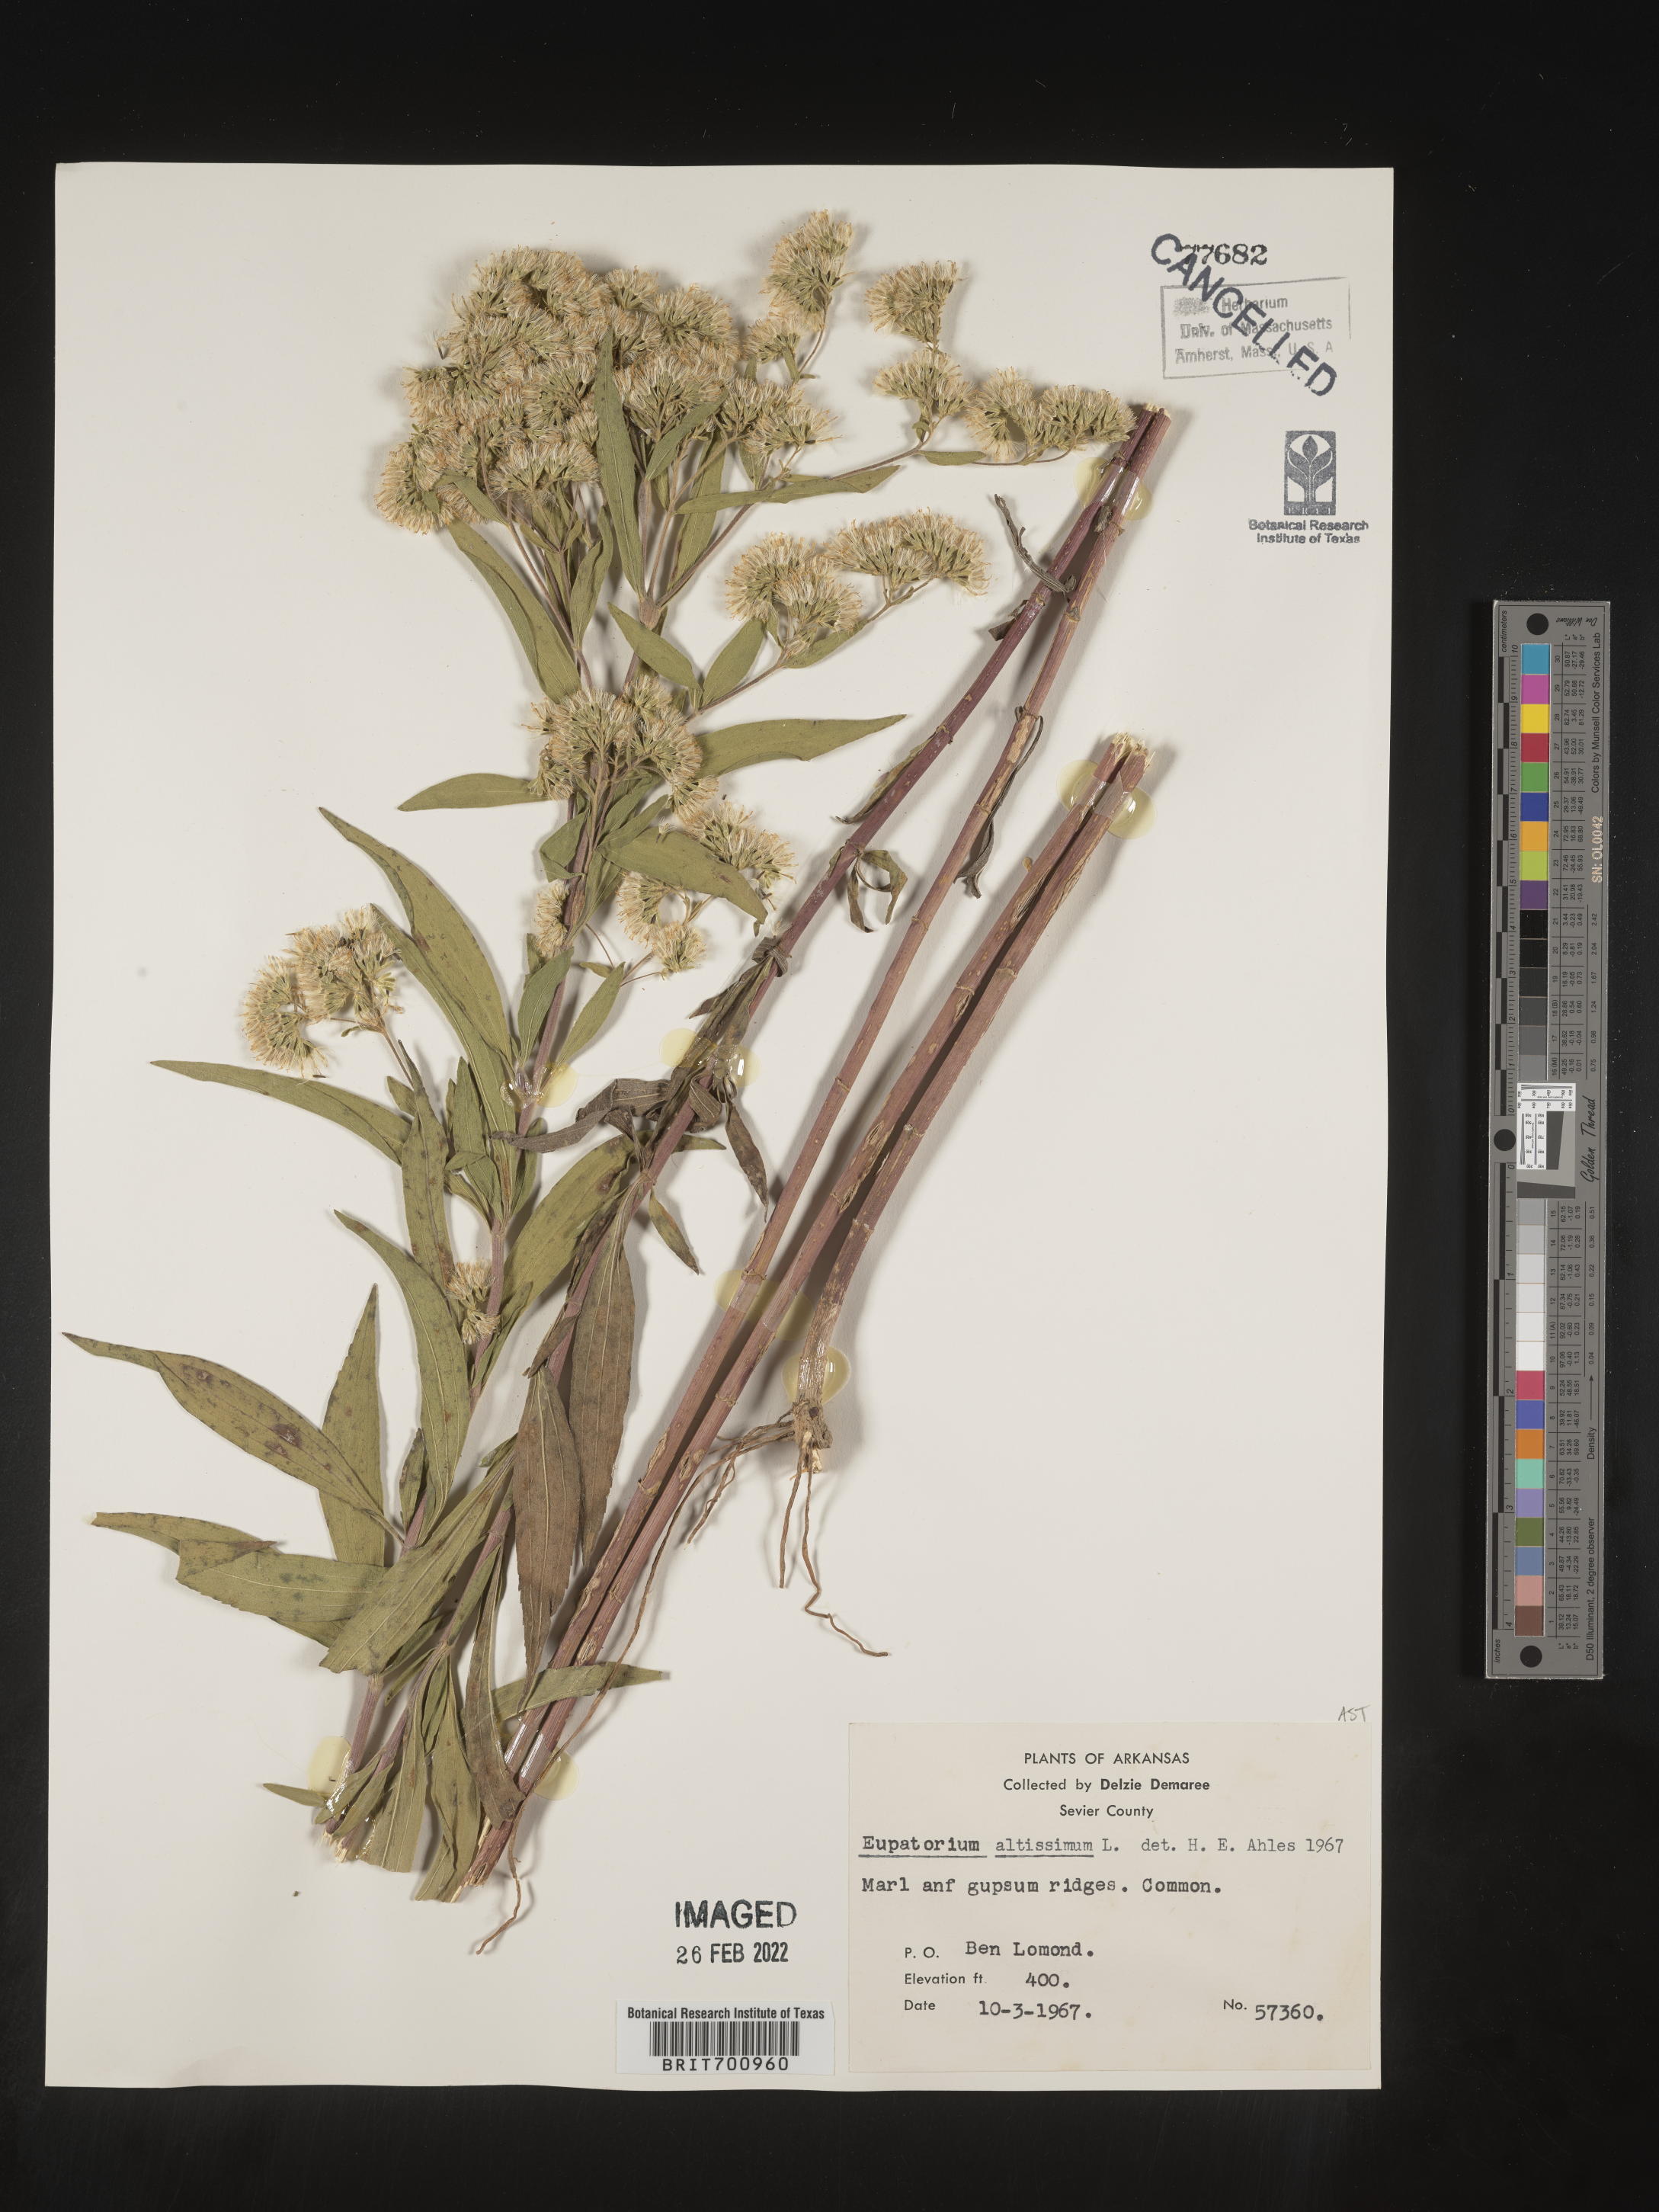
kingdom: Plantae
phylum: Tracheophyta
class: Magnoliopsida
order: Asterales
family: Asteraceae
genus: Eupatorium
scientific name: Eupatorium altissimum
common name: Tall thoroughwort
